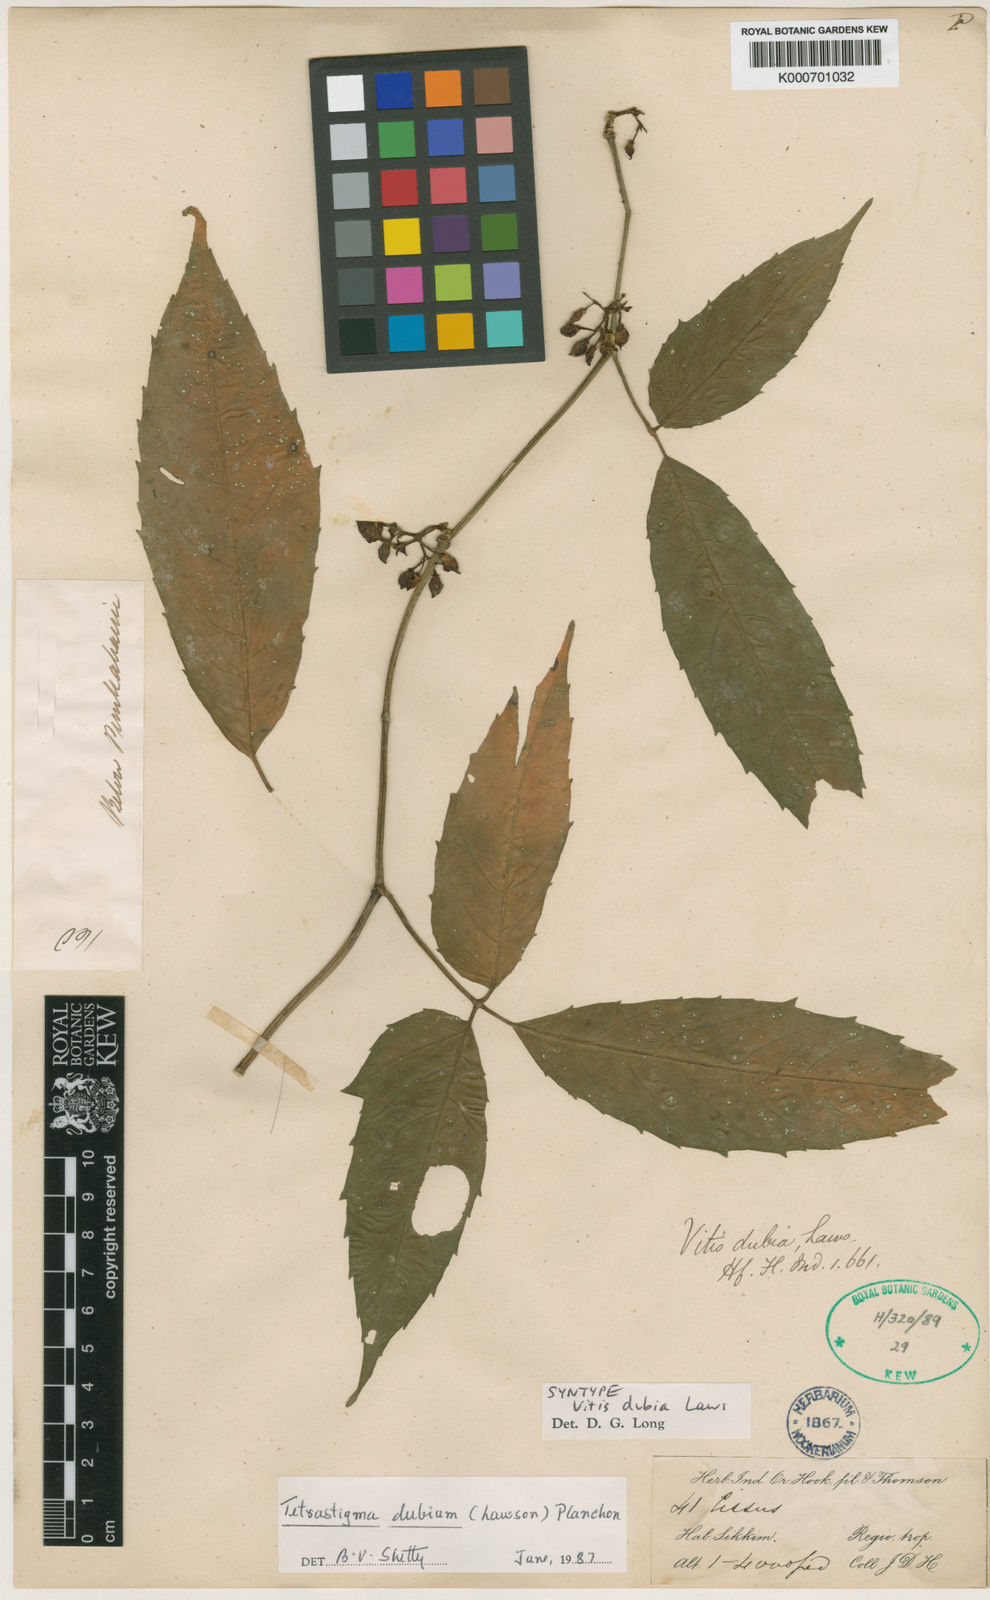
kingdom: Plantae
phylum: Tracheophyta
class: Magnoliopsida
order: Vitales
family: Vitaceae
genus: Tetrastigma
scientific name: Tetrastigma dubium
